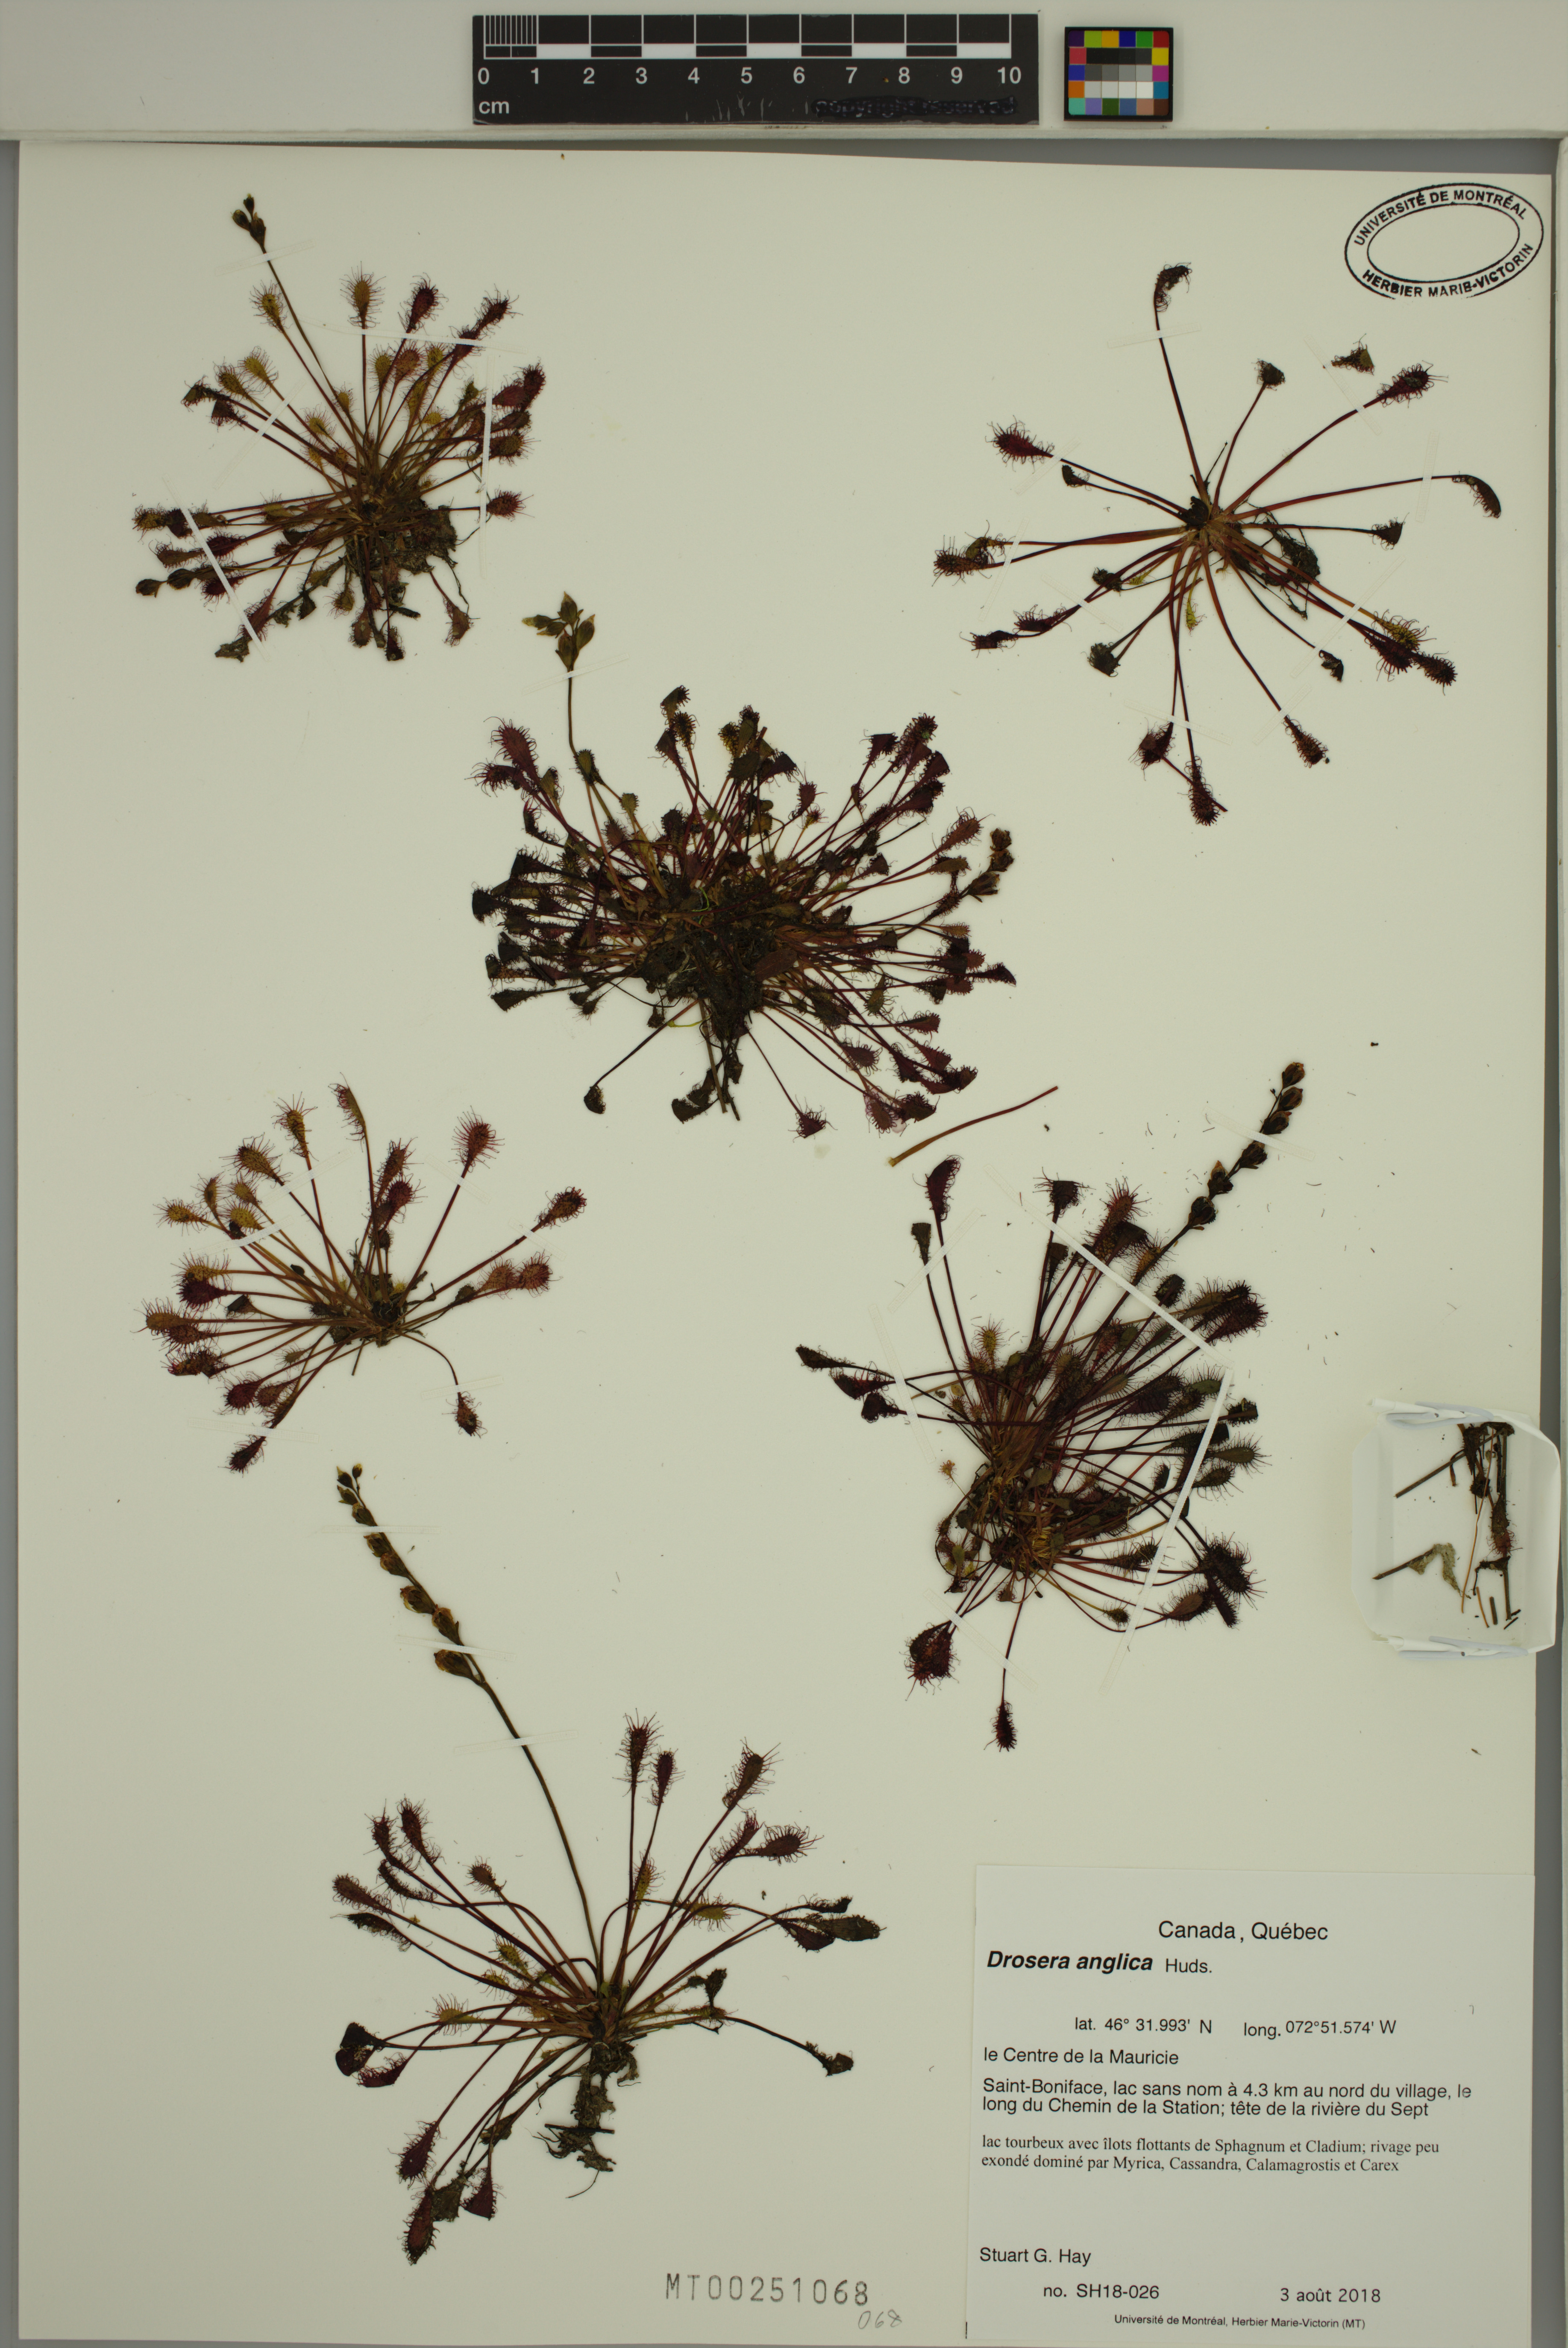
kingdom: Plantae
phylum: Tracheophyta
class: Magnoliopsida
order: Caryophyllales
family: Droseraceae
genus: Drosera
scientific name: Drosera anglica
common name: Great sundew
